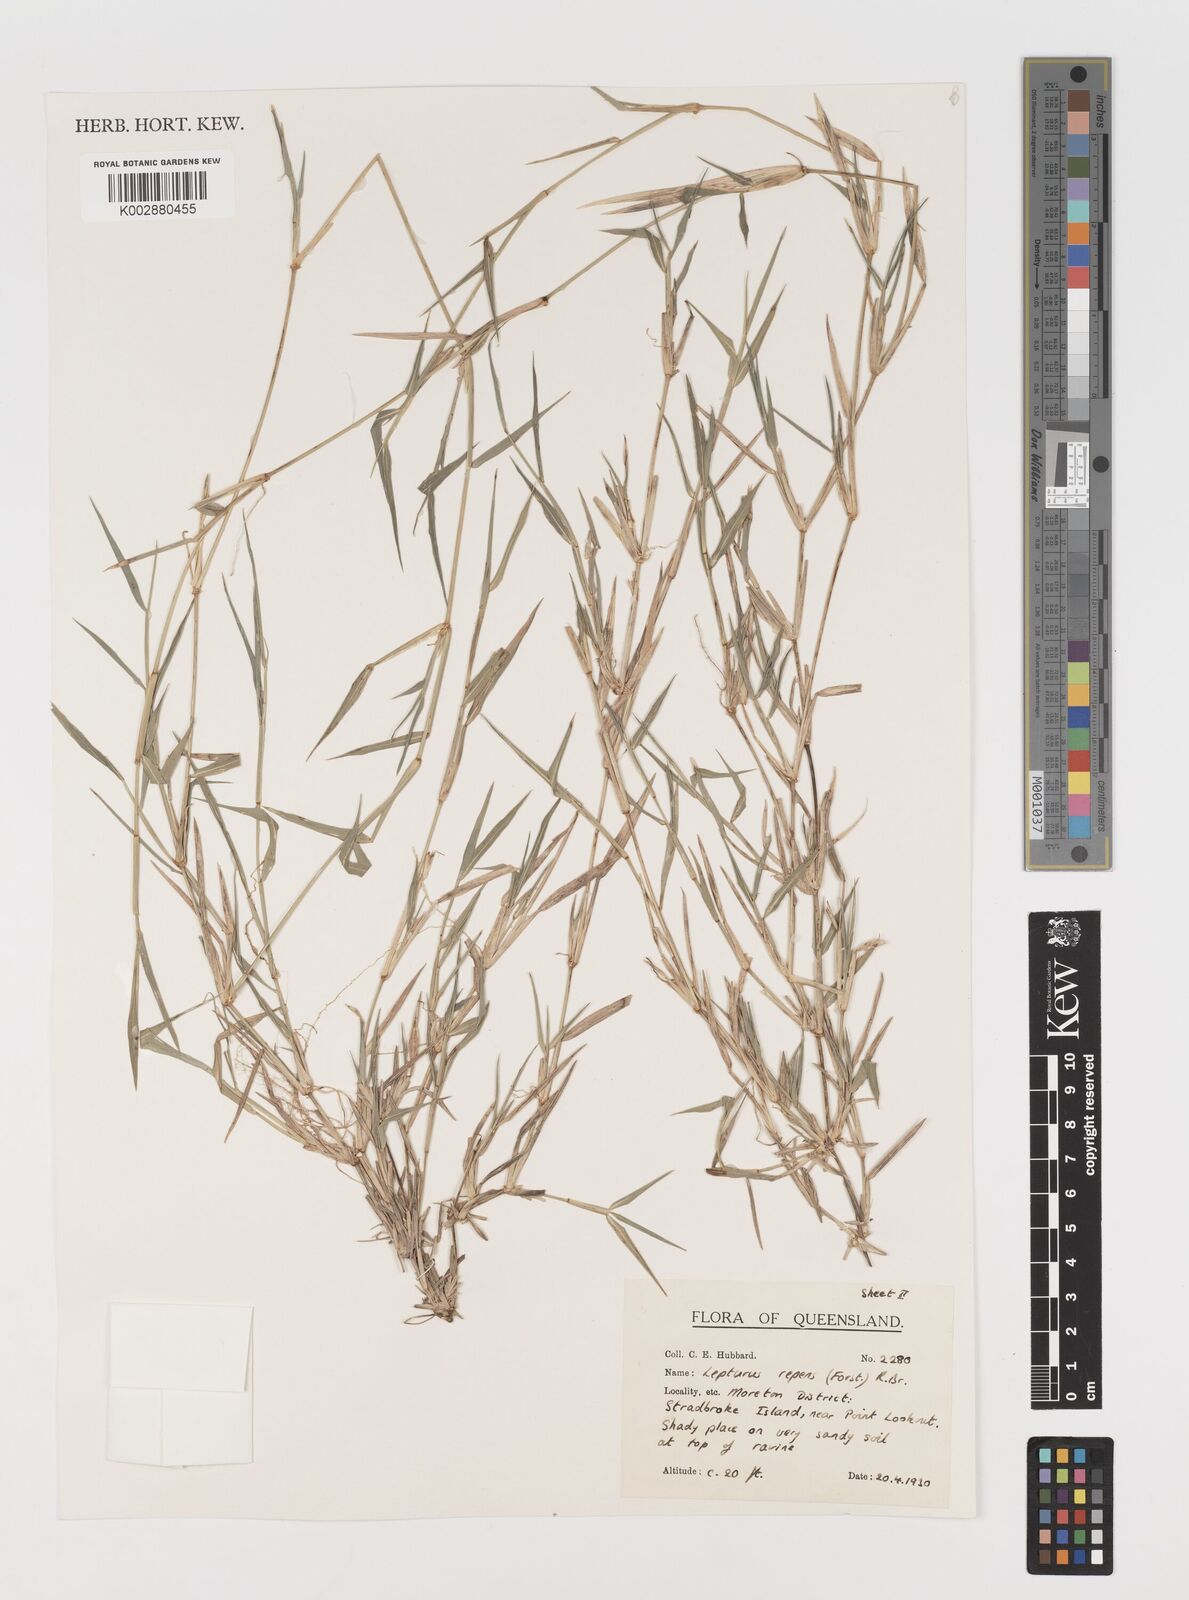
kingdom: Plantae
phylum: Tracheophyta
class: Liliopsida
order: Poales
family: Poaceae
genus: Lepturus
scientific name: Lepturus repens
